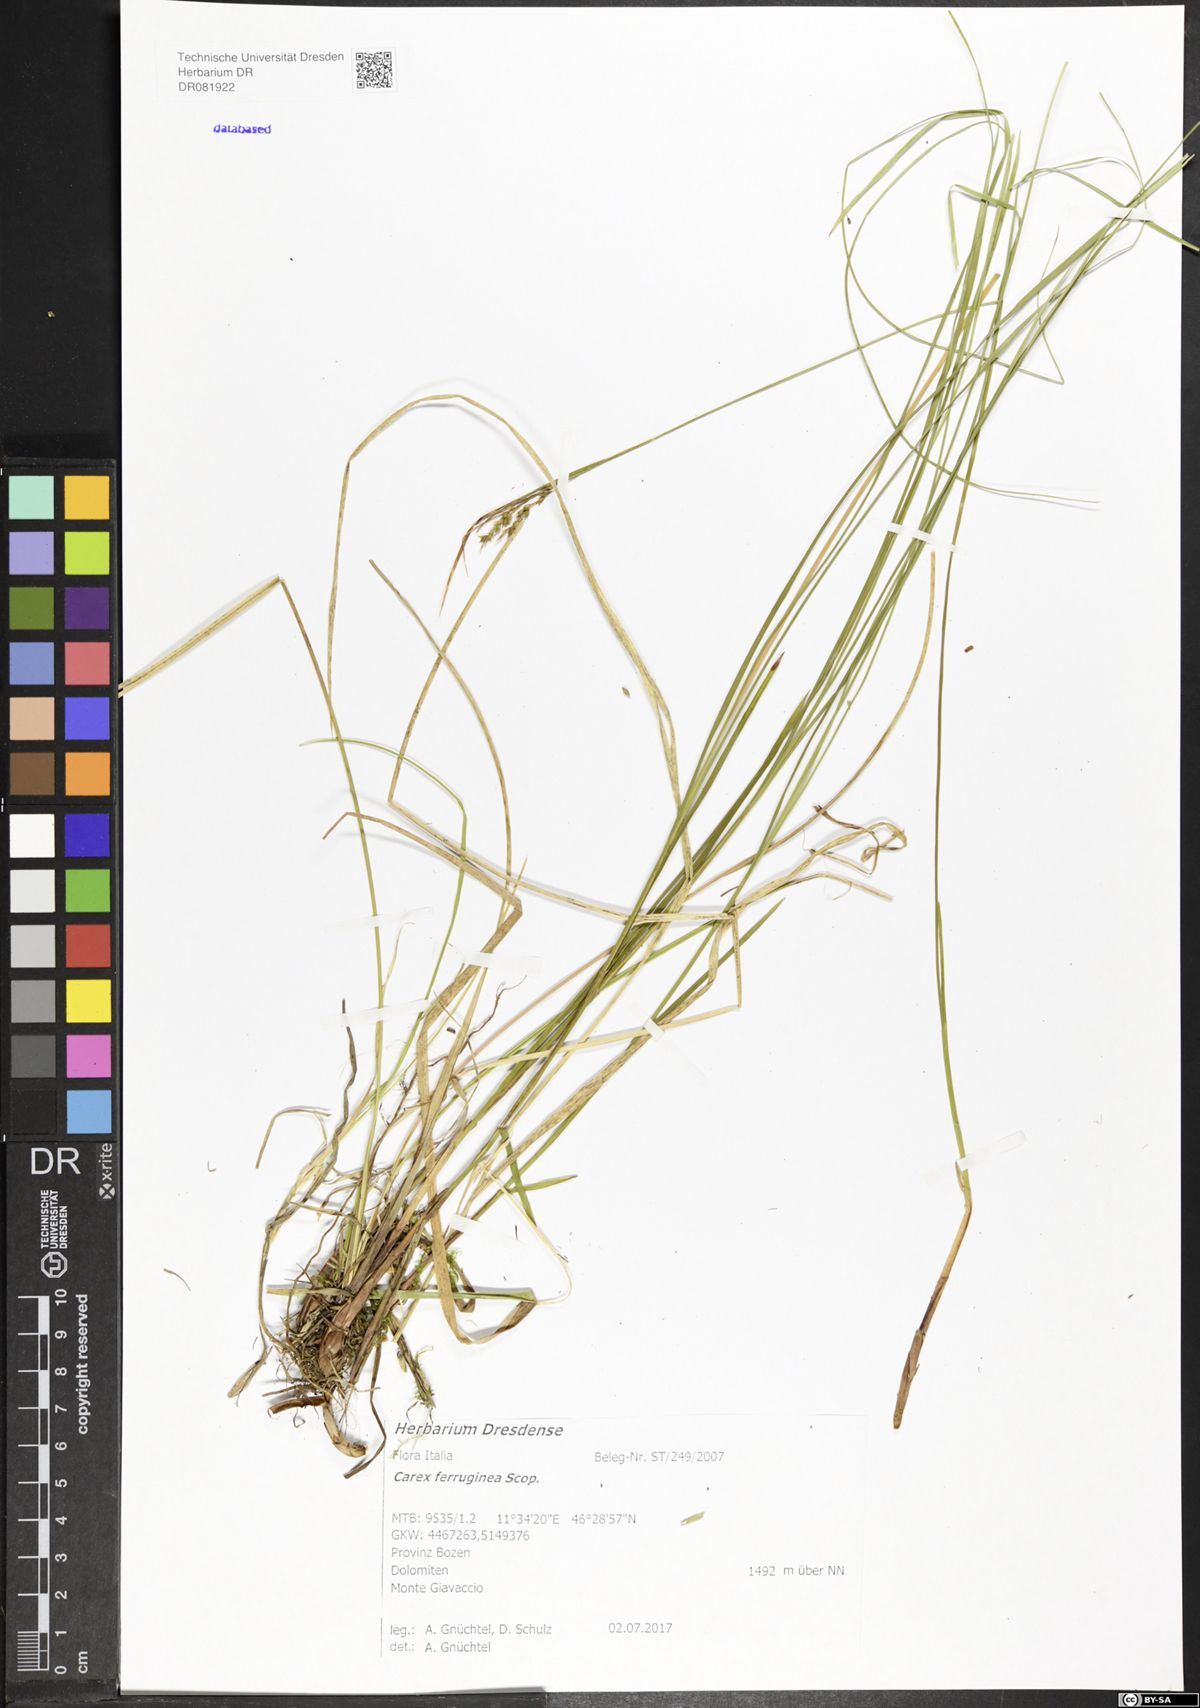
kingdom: Plantae
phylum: Tracheophyta
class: Liliopsida
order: Poales
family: Cyperaceae
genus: Carex
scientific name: Carex ferruginea
